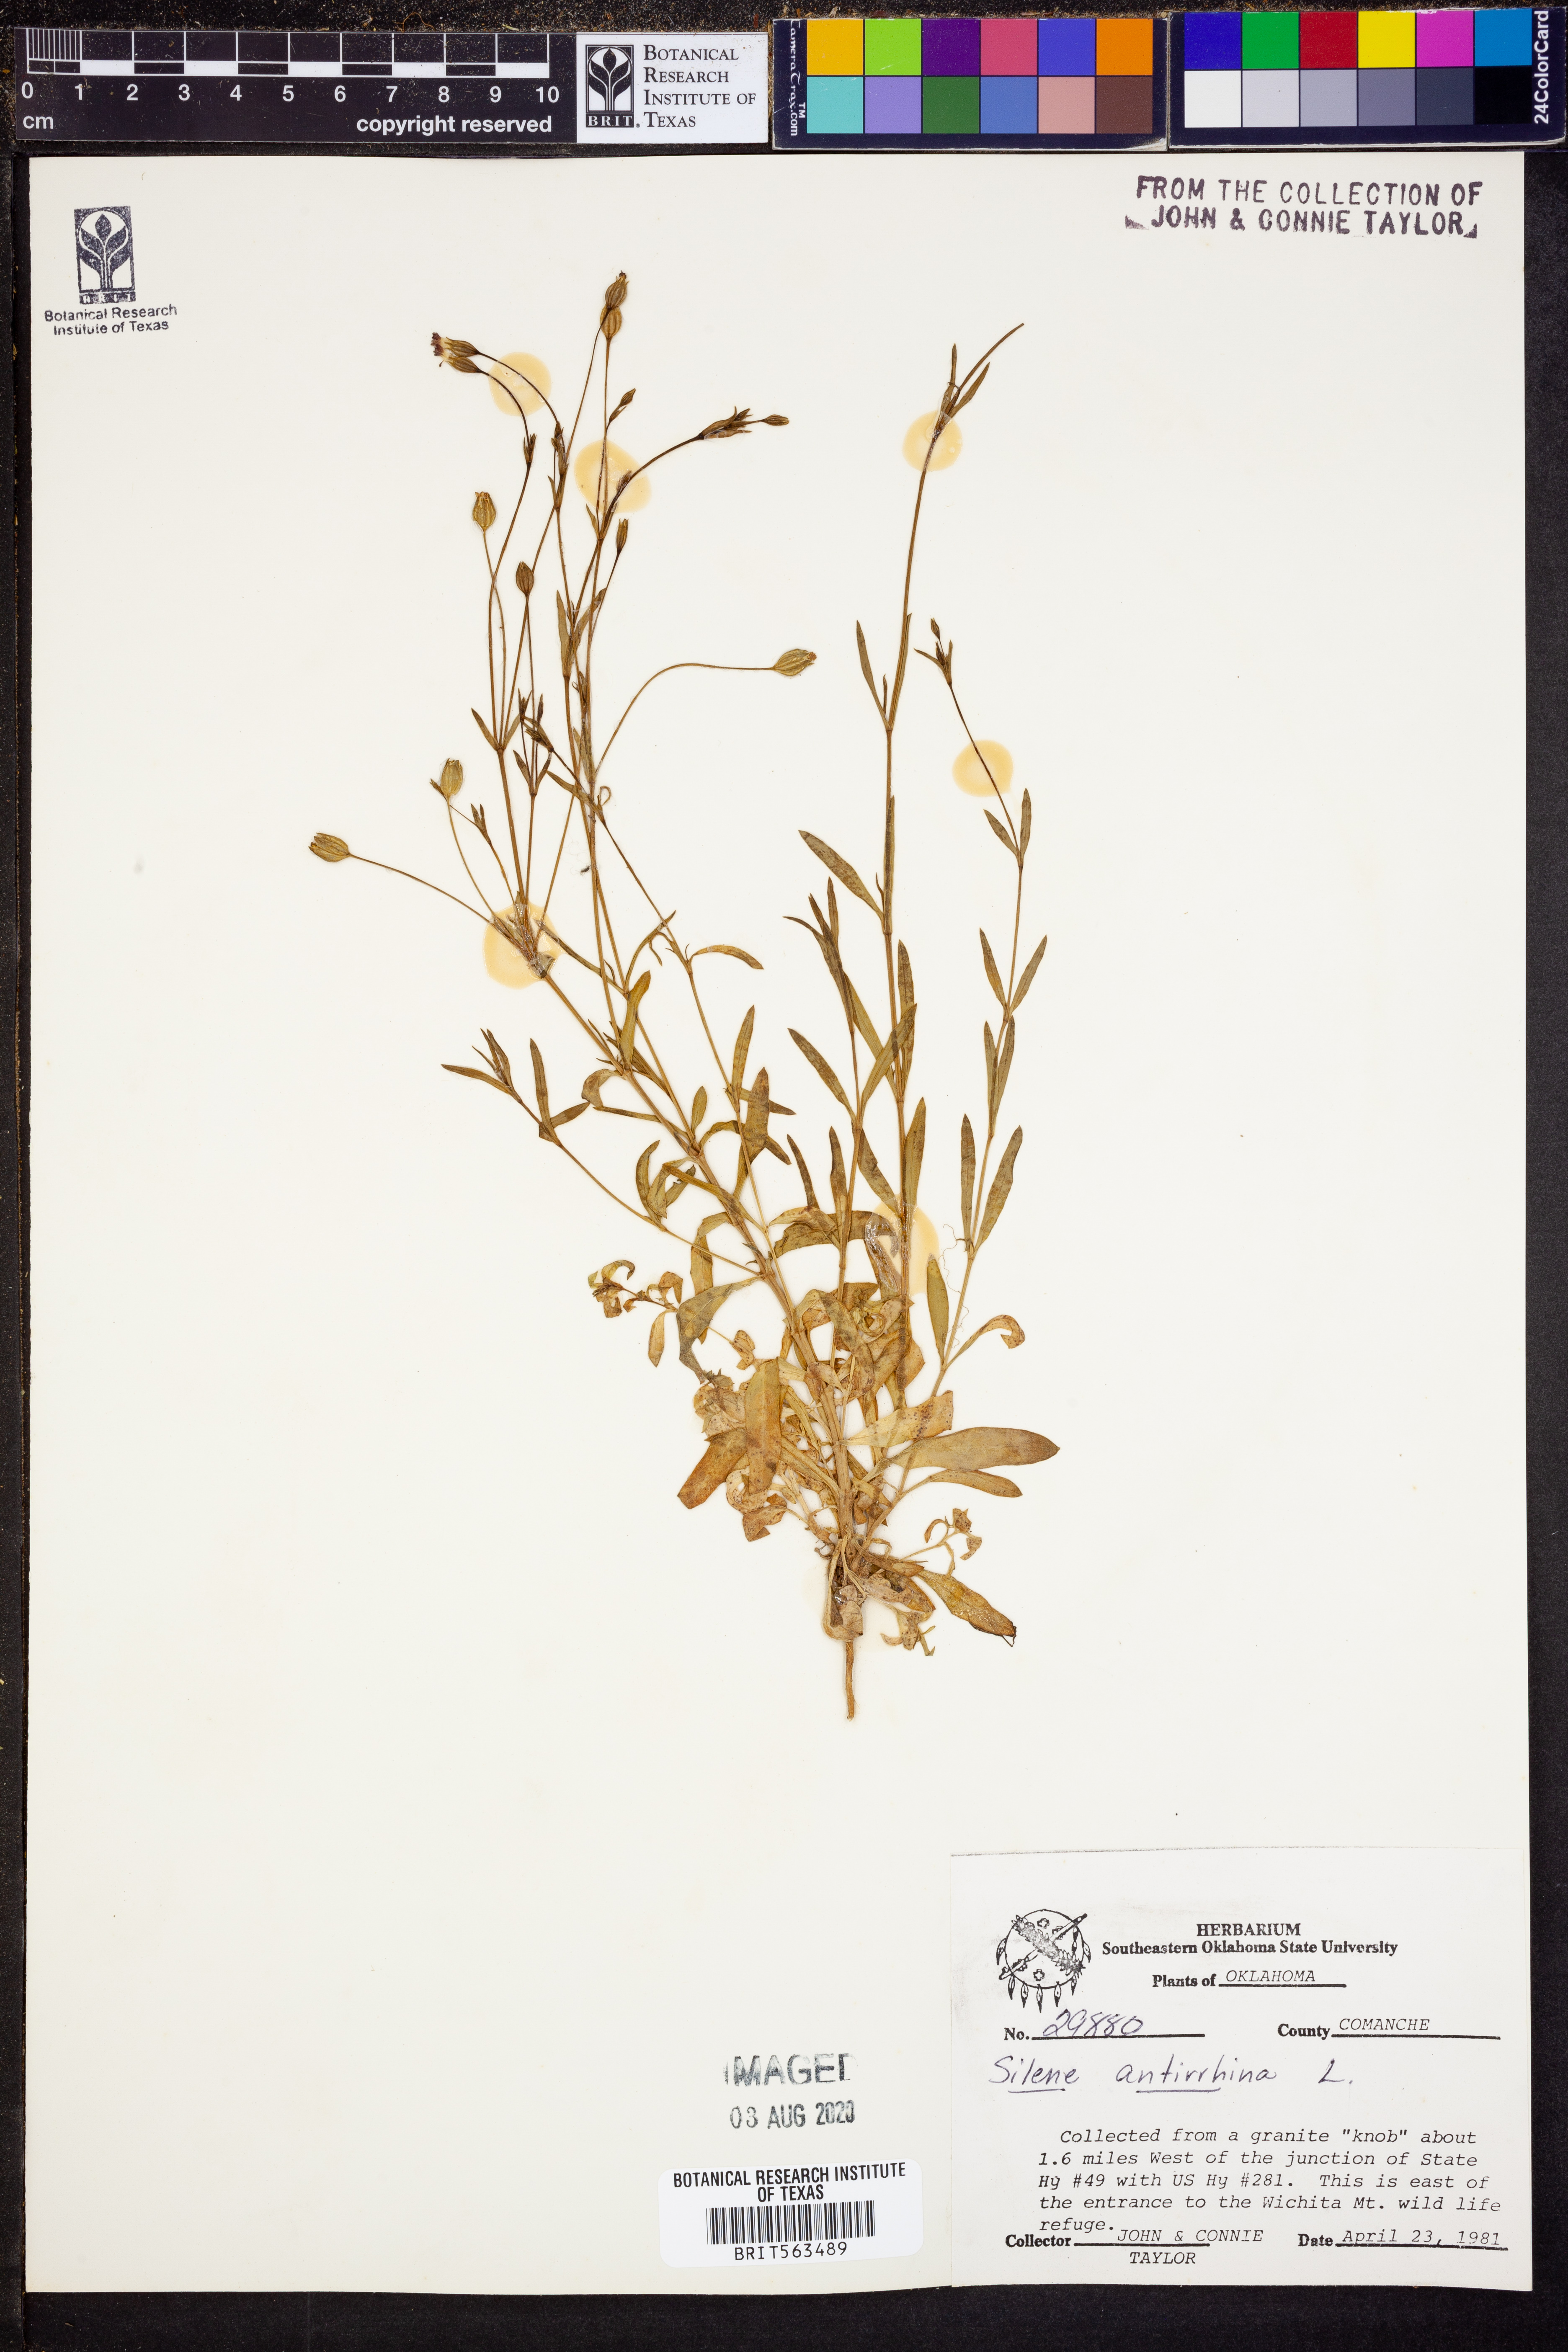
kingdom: Plantae
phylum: Tracheophyta
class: Magnoliopsida
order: Caryophyllales
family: Caryophyllaceae
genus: Silene
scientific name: Silene antirrhina
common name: Sleepy catchfly
